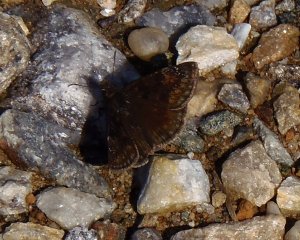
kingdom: Animalia
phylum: Arthropoda
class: Insecta
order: Lepidoptera
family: Hesperiidae
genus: Gesta
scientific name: Gesta
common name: Wild Indigo Duskywing
